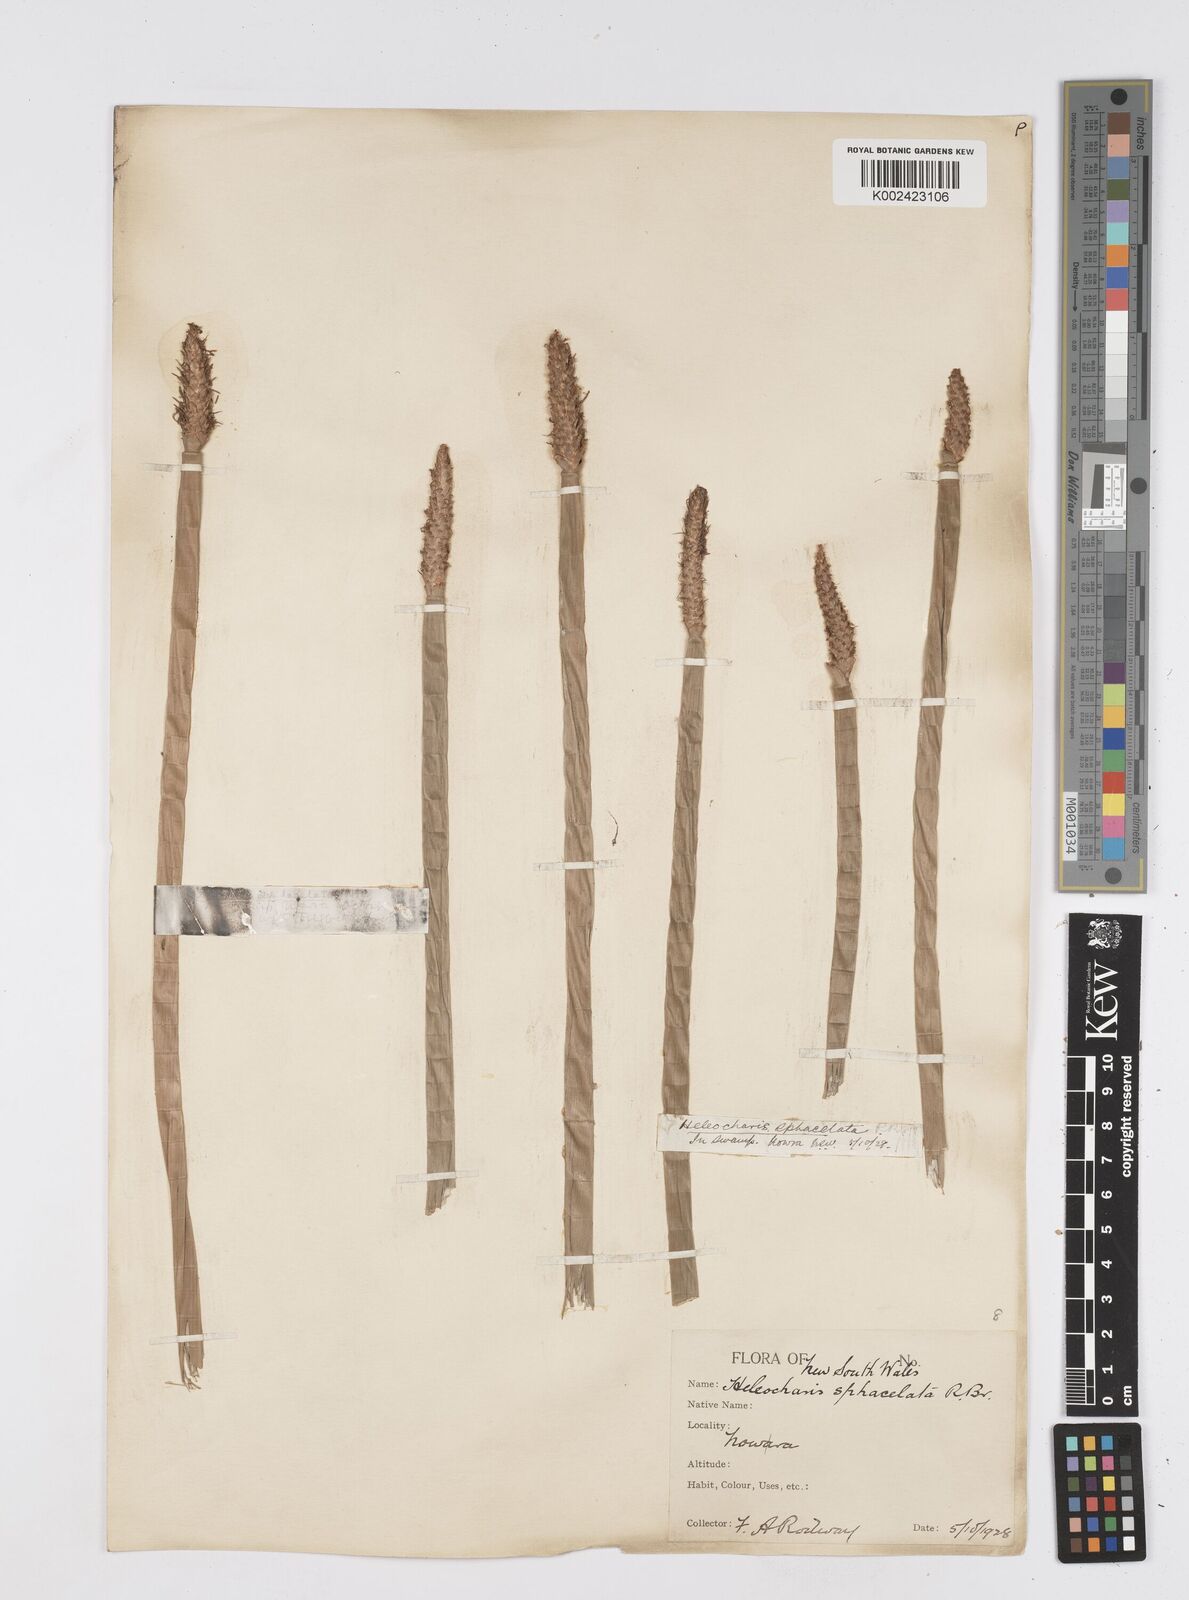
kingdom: Plantae
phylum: Tracheophyta
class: Liliopsida
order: Poales
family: Cyperaceae
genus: Eleocharis
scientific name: Eleocharis sphacelata
